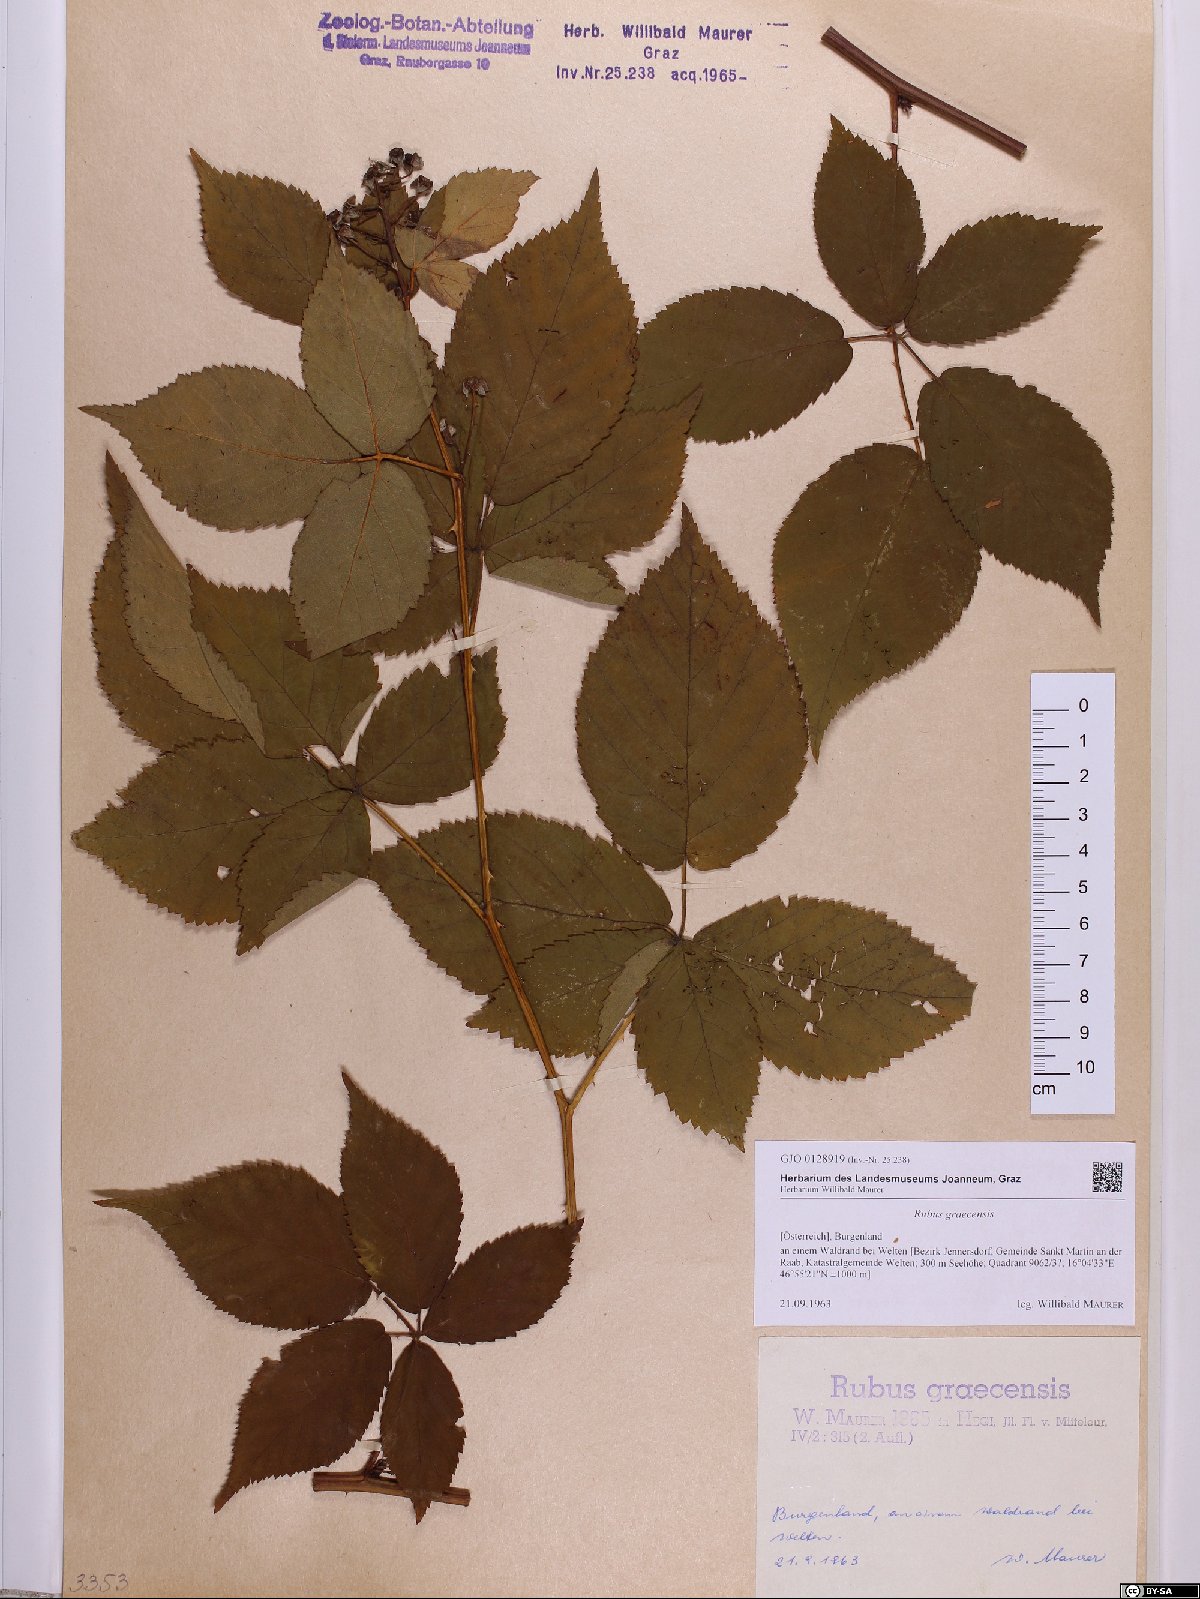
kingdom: Plantae
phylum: Tracheophyta
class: Magnoliopsida
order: Rosales
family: Rosaceae
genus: Rubus
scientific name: Rubus graecensis
